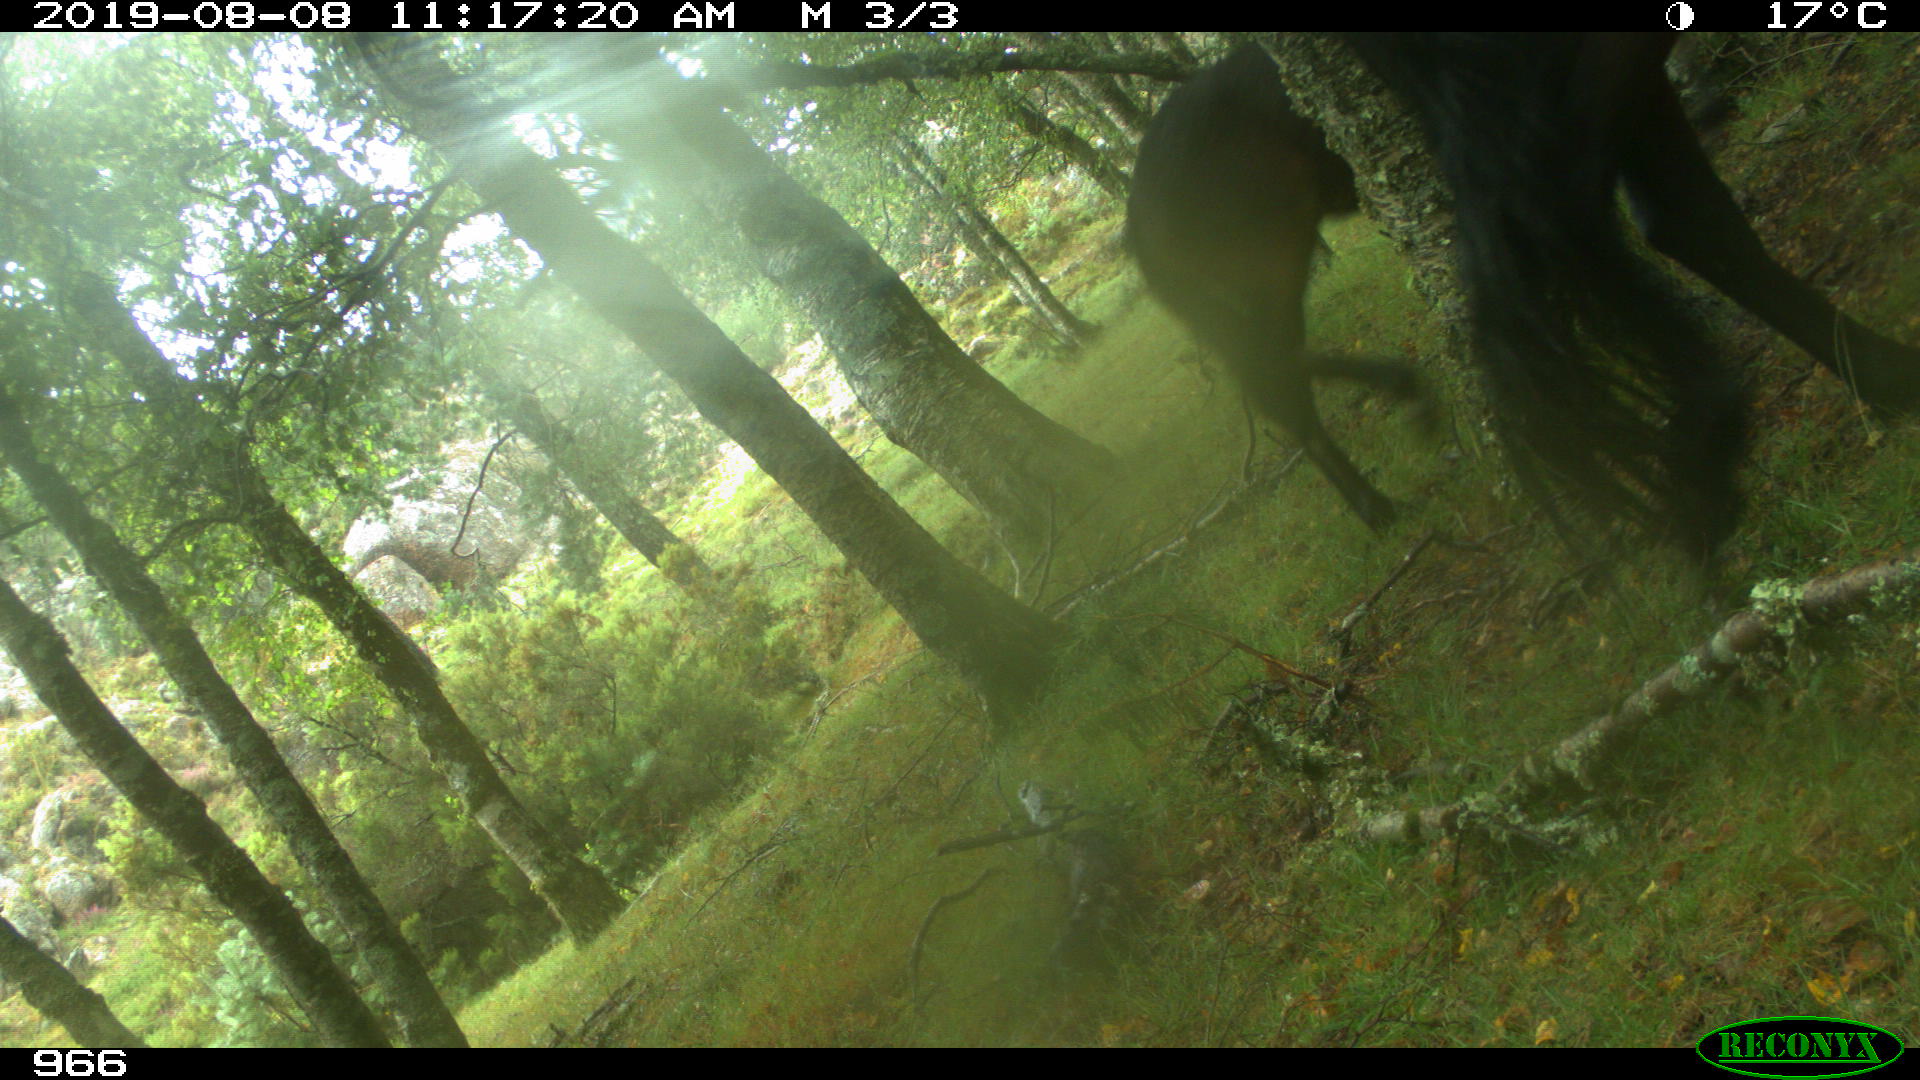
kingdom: Animalia
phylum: Chordata
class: Mammalia
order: Perissodactyla
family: Equidae
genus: Equus
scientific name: Equus caballus
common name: Horse
